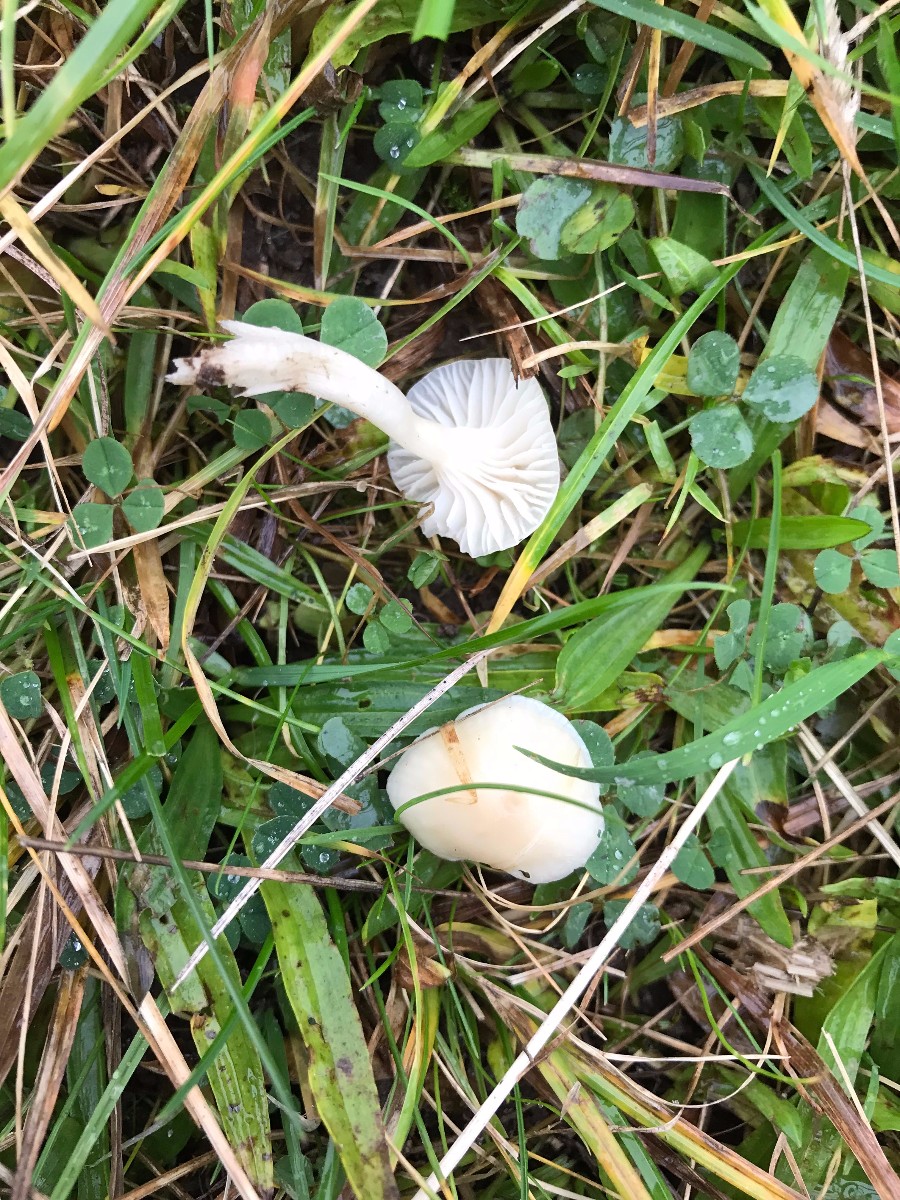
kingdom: Fungi
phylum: Basidiomycota
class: Agaricomycetes
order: Agaricales
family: Hygrophoraceae
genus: Cuphophyllus
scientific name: Cuphophyllus virgineus
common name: snehvid vokshat
